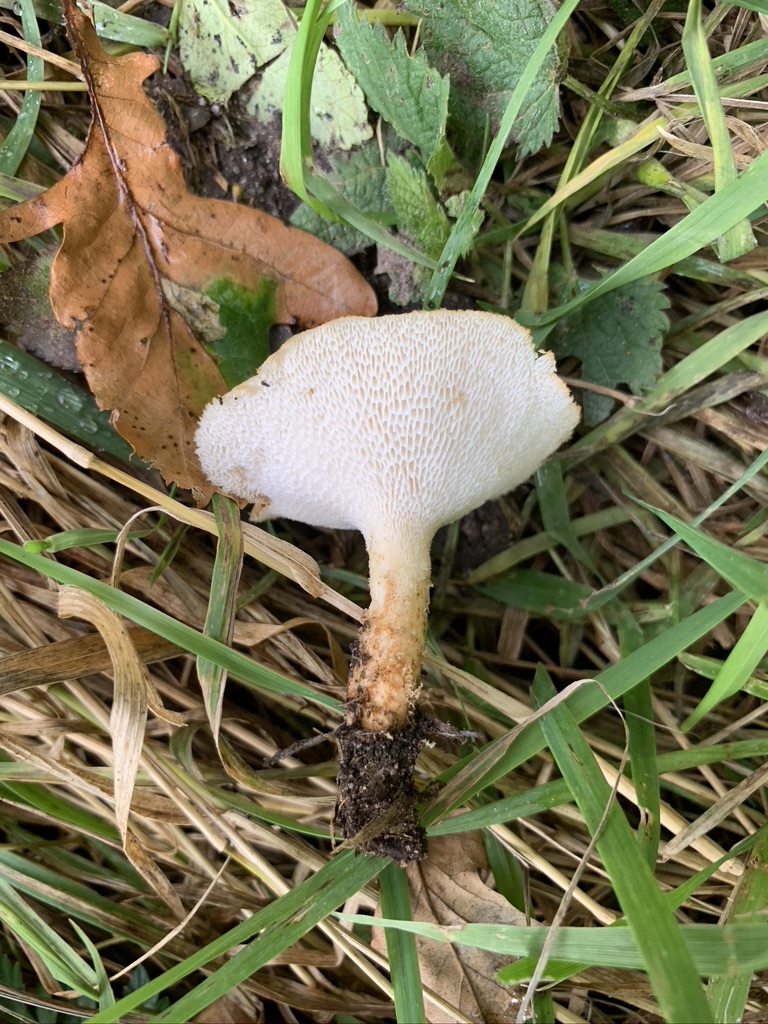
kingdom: Fungi
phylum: Basidiomycota
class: Agaricomycetes
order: Polyporales
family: Polyporaceae
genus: Polyporus
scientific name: Polyporus tuberaster
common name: knoldet stilkporesvamp
